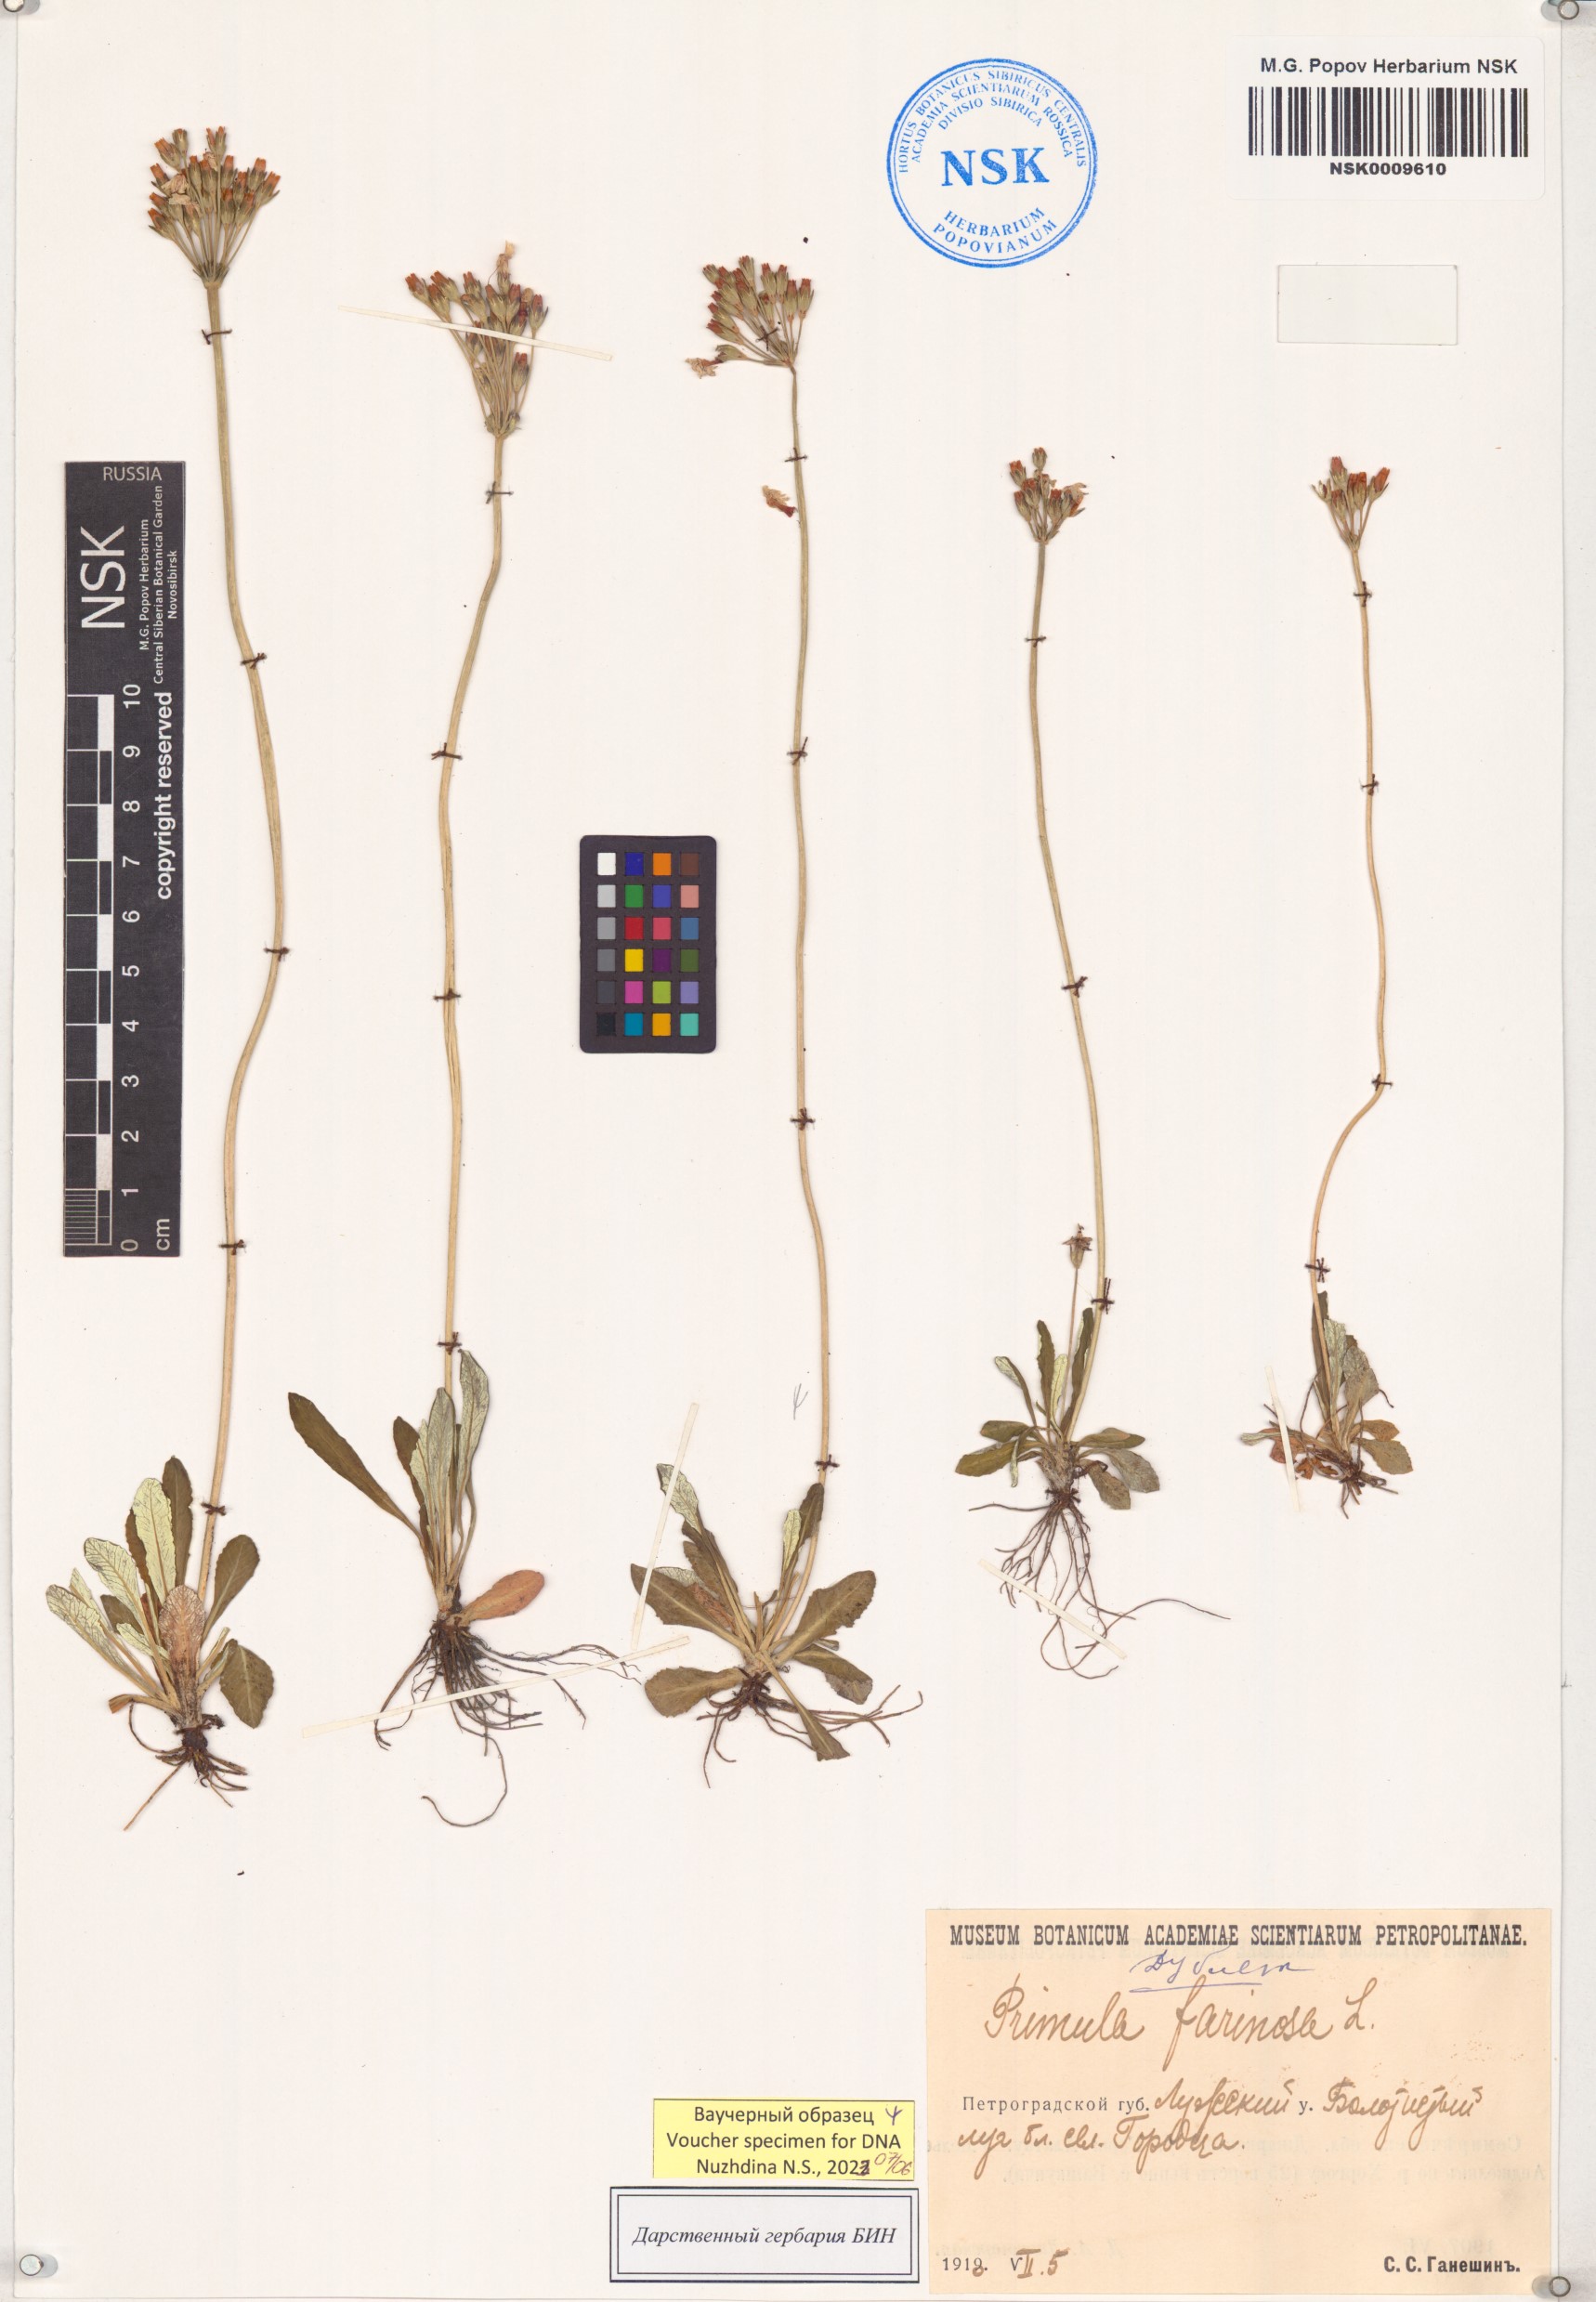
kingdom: Plantae
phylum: Tracheophyta
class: Magnoliopsida
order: Ericales
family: Primulaceae
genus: Primula
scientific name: Primula farinosa
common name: Bird's-eye primrose
